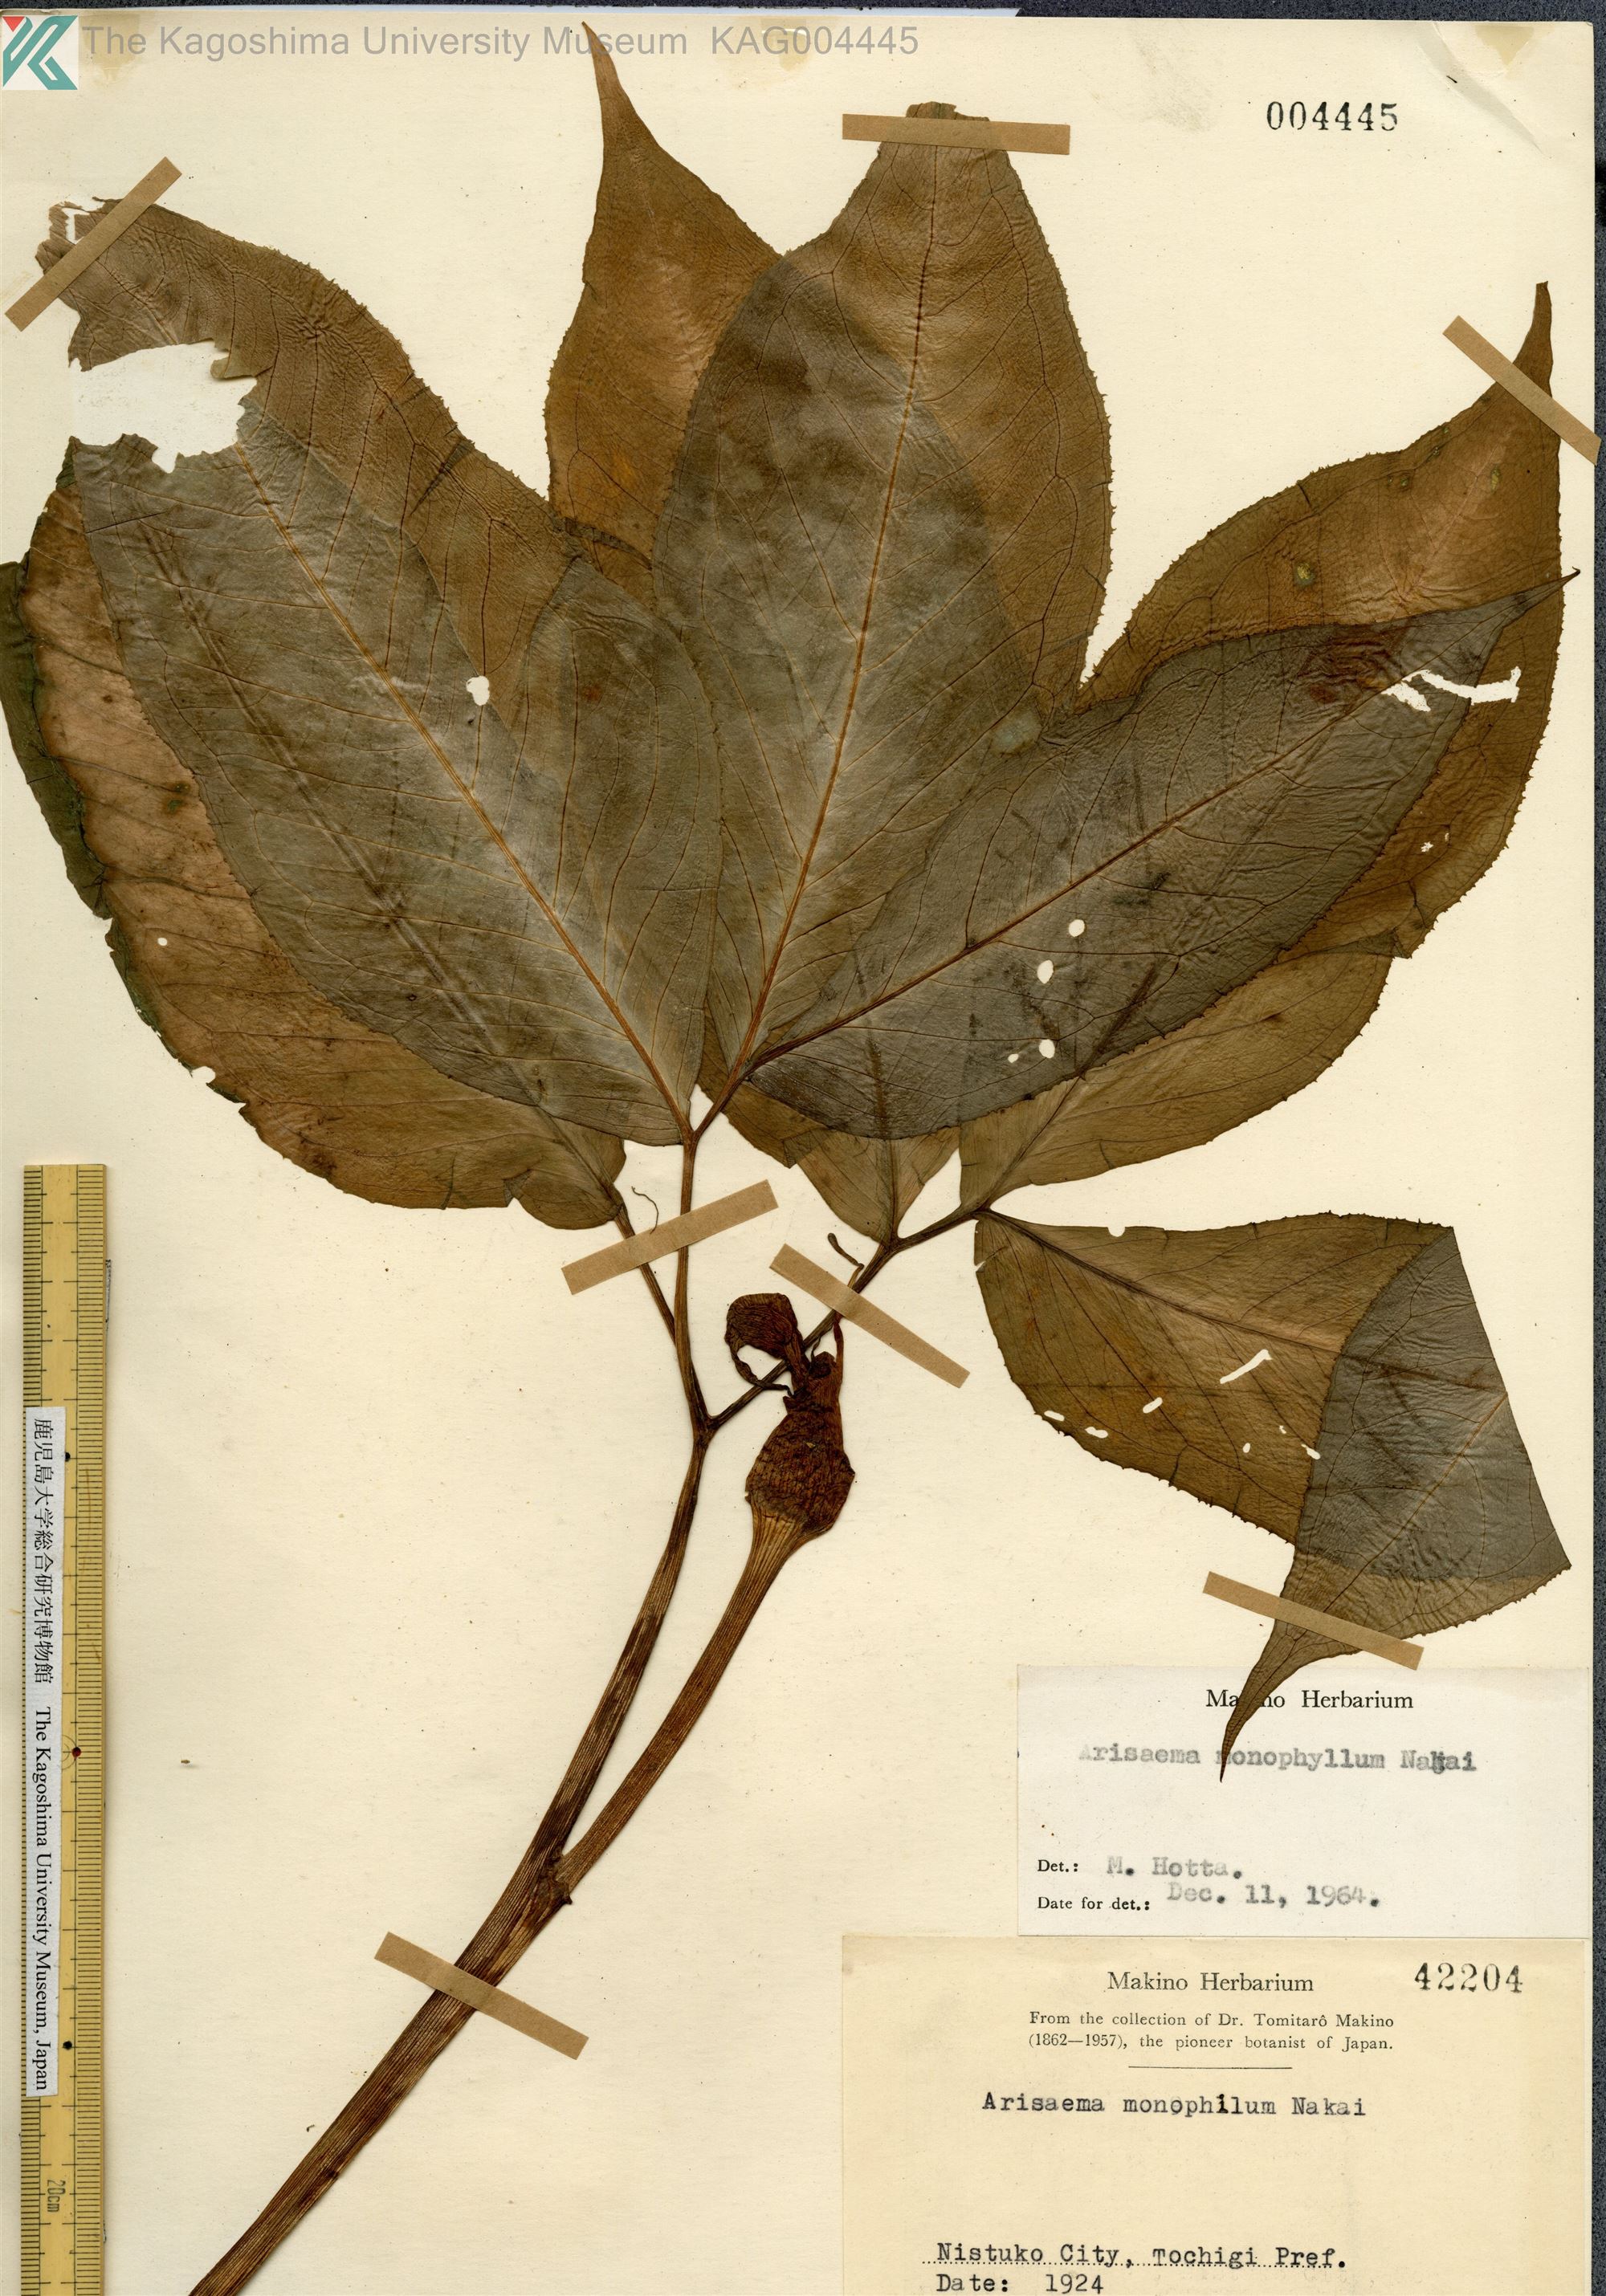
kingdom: Plantae
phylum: Tracheophyta
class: Liliopsida
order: Alismatales
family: Araceae
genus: Arisaema
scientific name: Arisaema monophyllum
